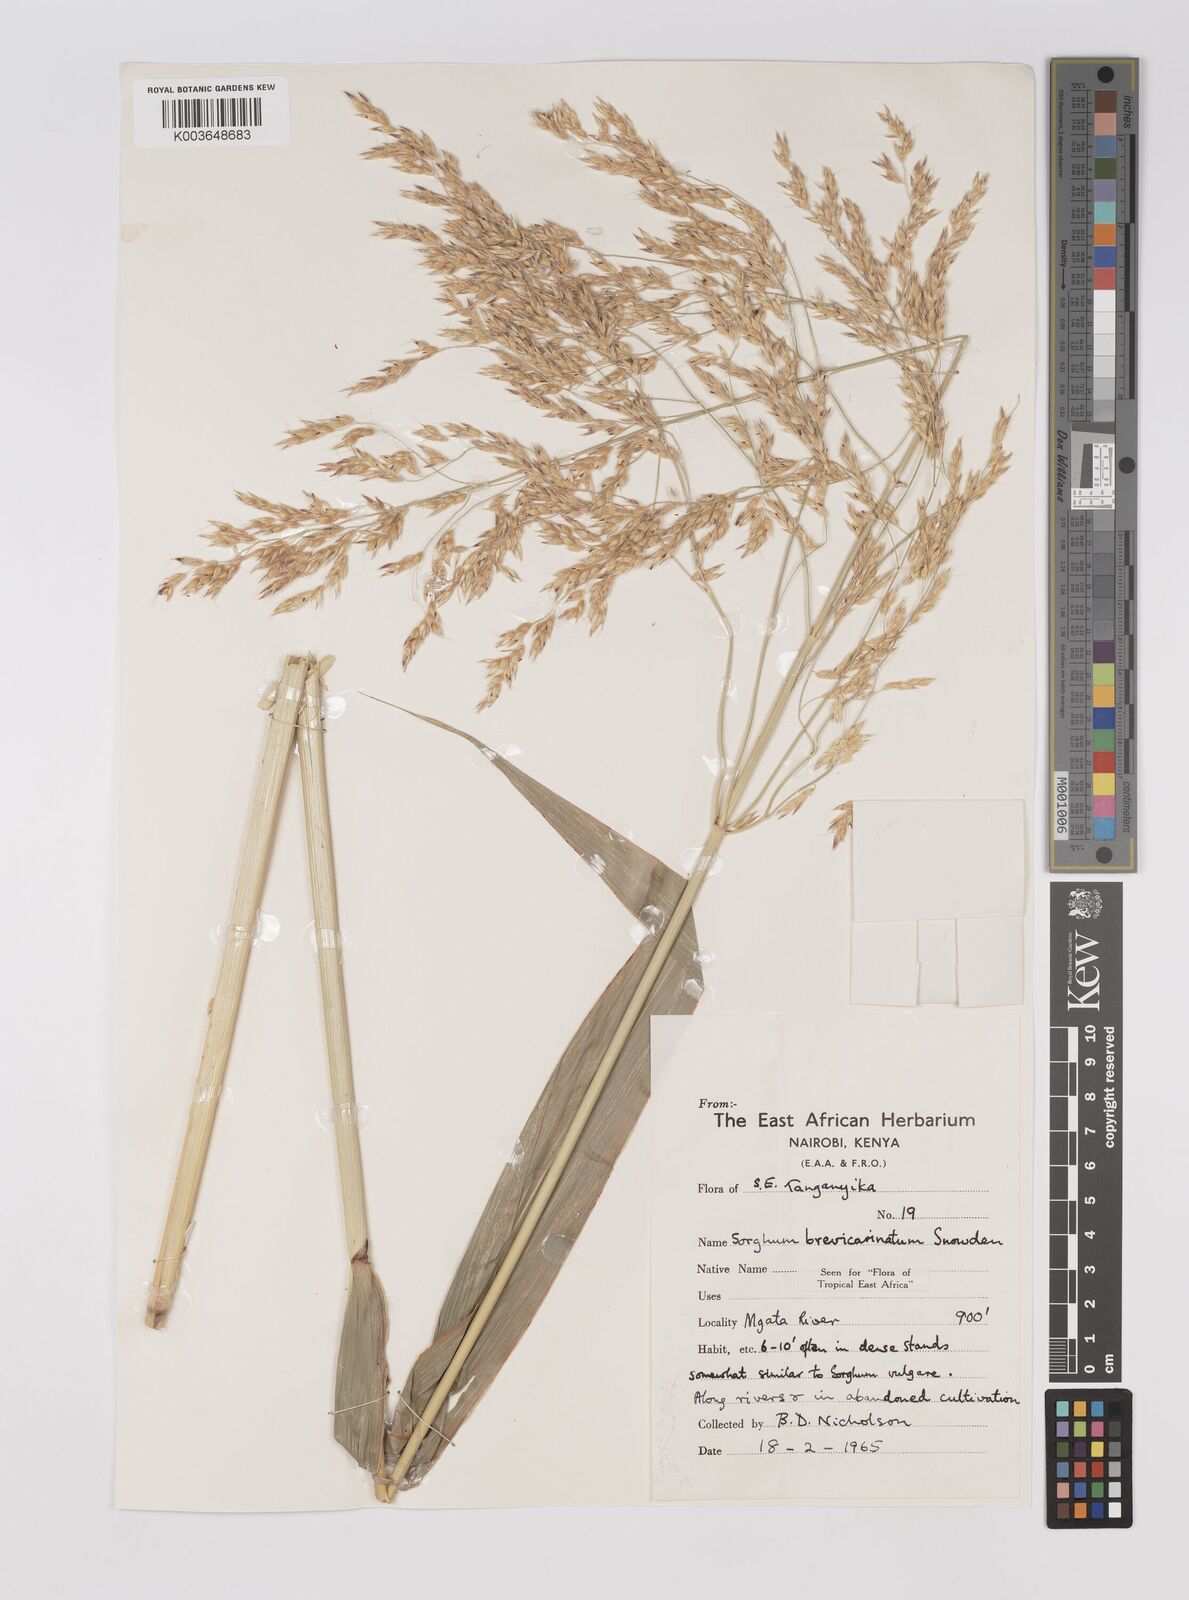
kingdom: Plantae
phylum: Tracheophyta
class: Liliopsida
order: Poales
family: Poaceae
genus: Sorghum
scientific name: Sorghum arundinaceum
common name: Sorghum
